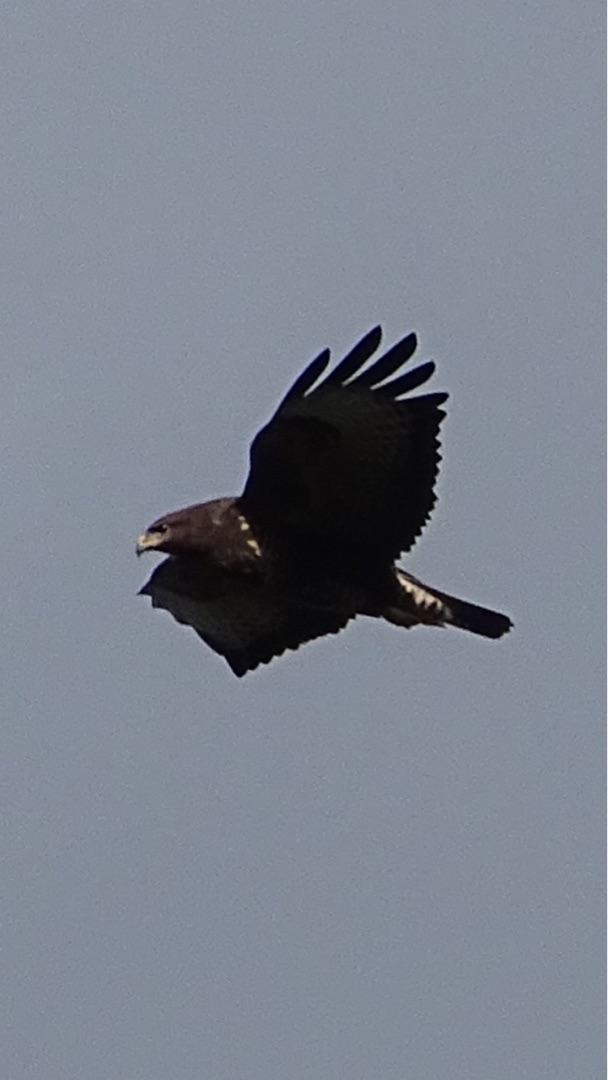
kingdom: Animalia
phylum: Chordata
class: Aves
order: Accipitriformes
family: Accipitridae
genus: Buteo
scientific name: Buteo buteo
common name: Musvåge
